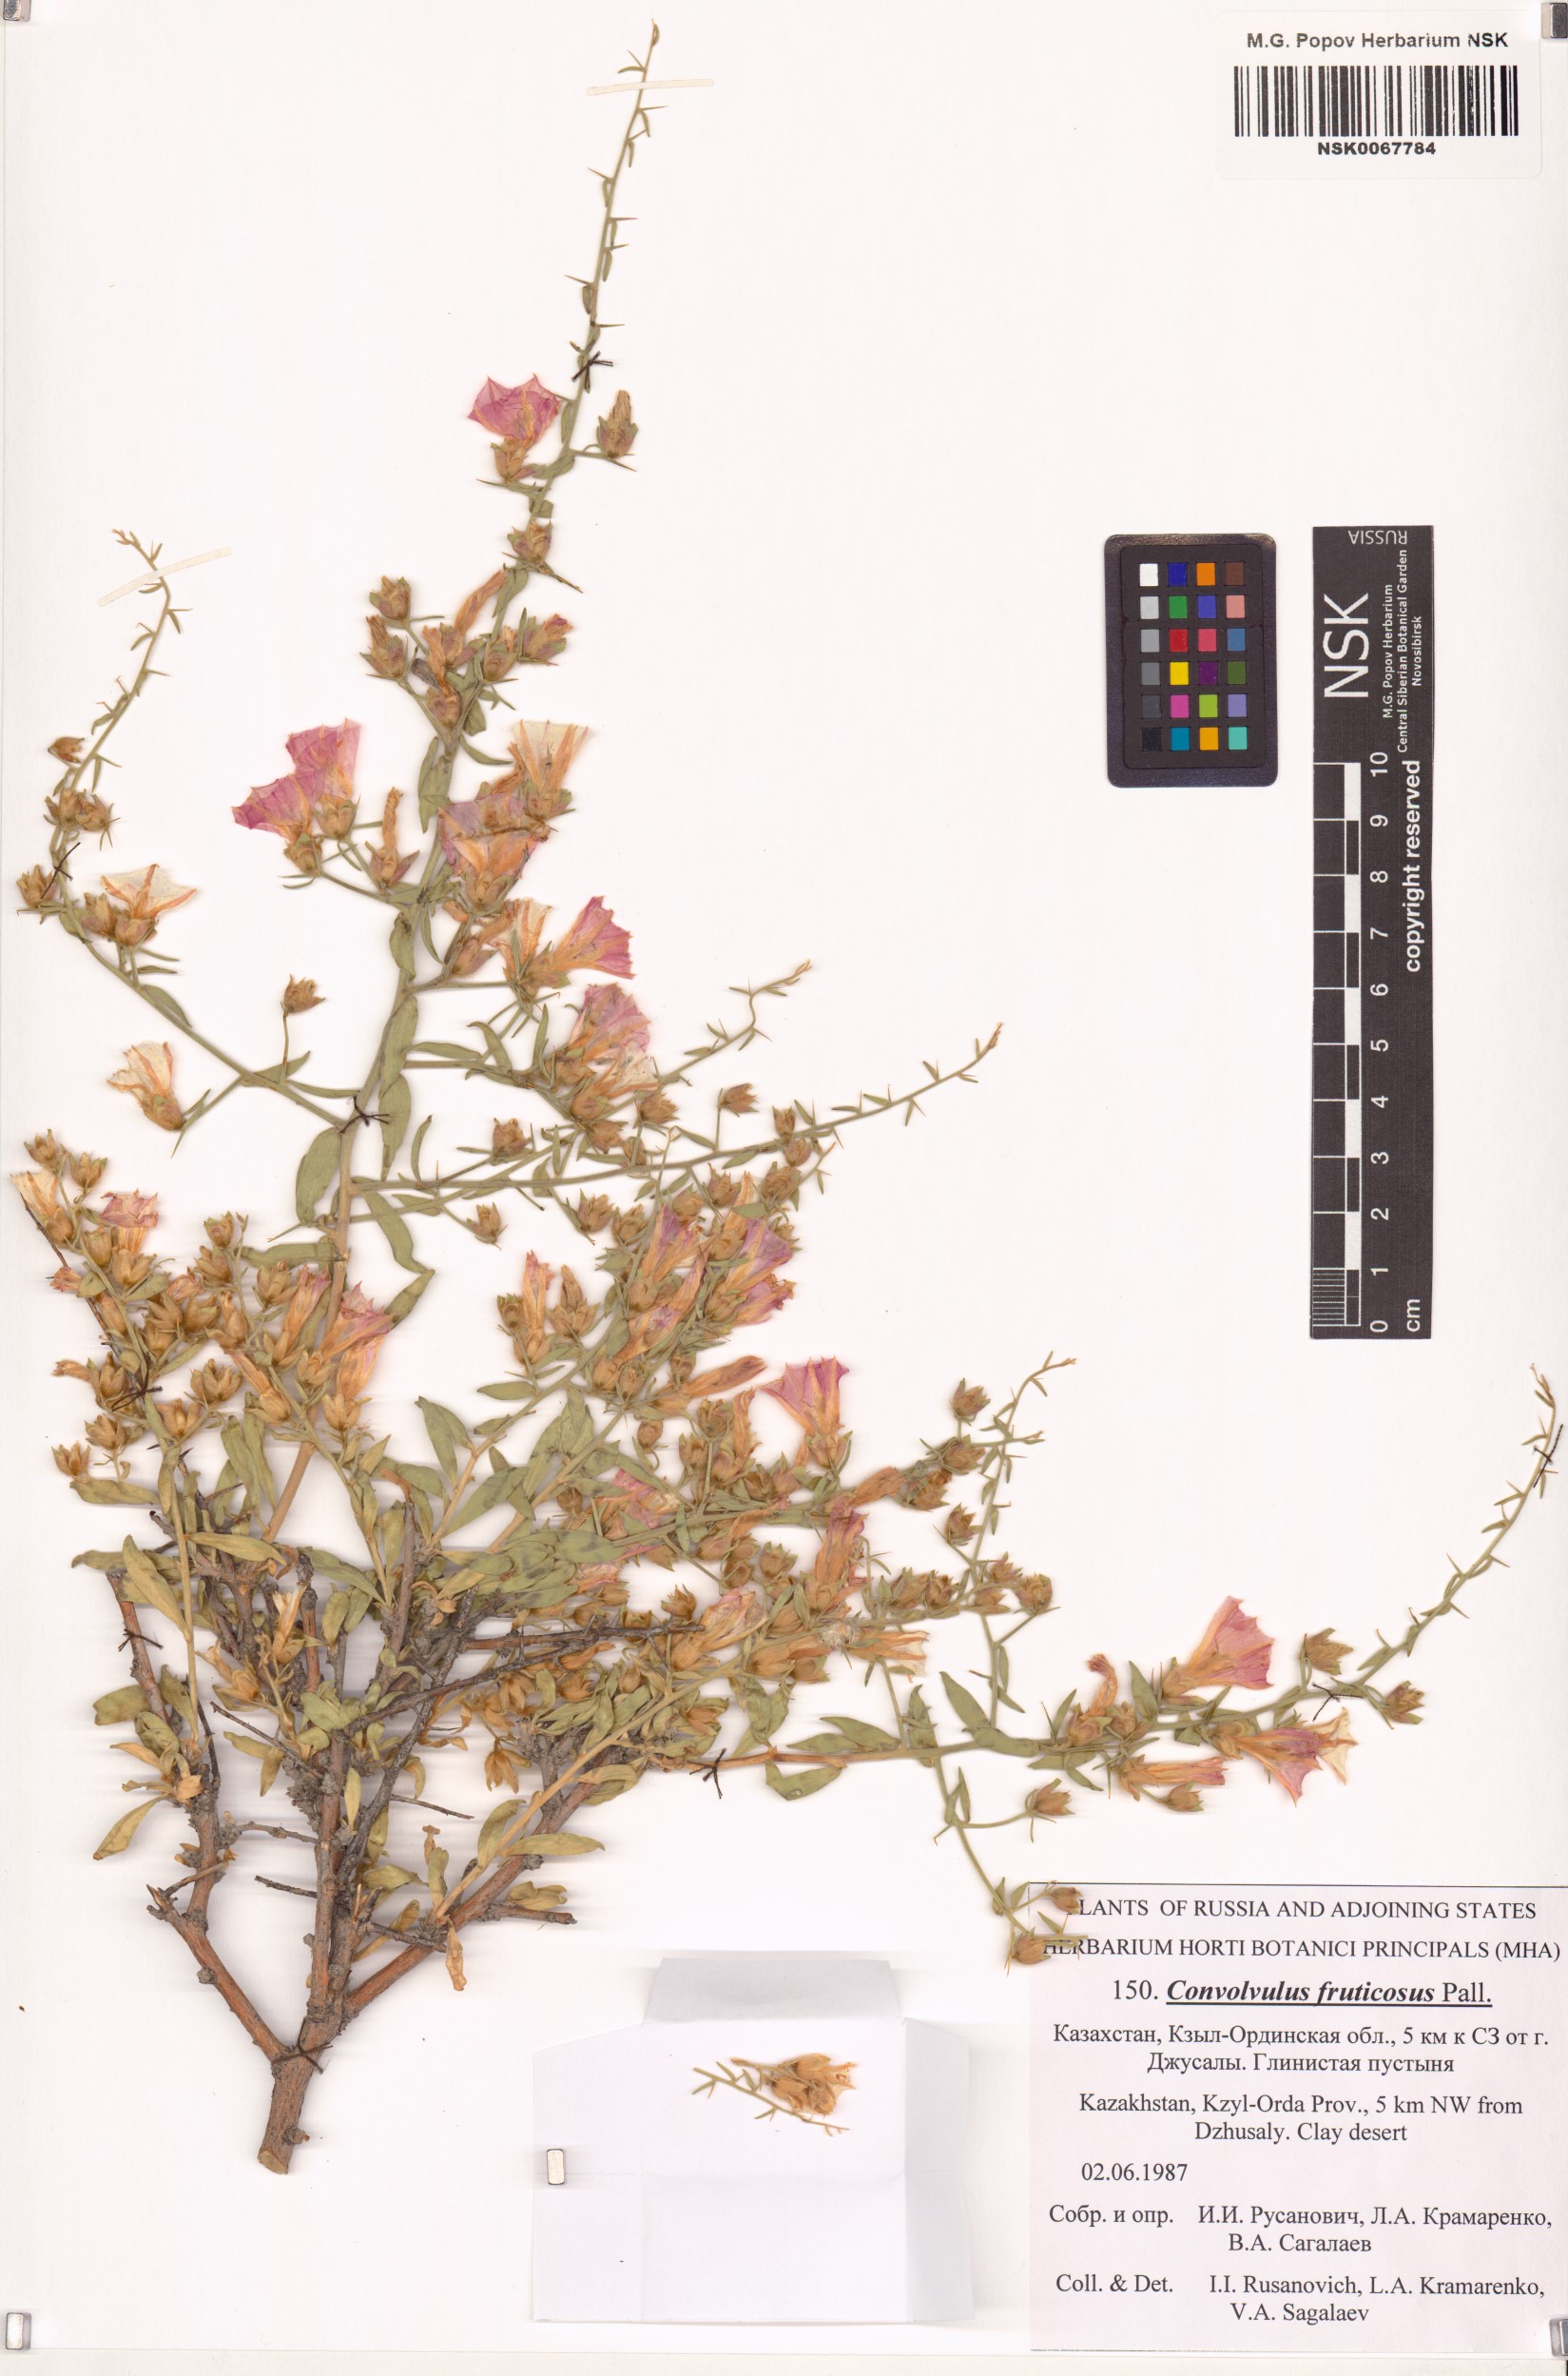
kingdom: Plantae
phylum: Tracheophyta
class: Magnoliopsida
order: Solanales
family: Convolvulaceae
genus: Convolvulus
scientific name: Convolvulus fruticosus
